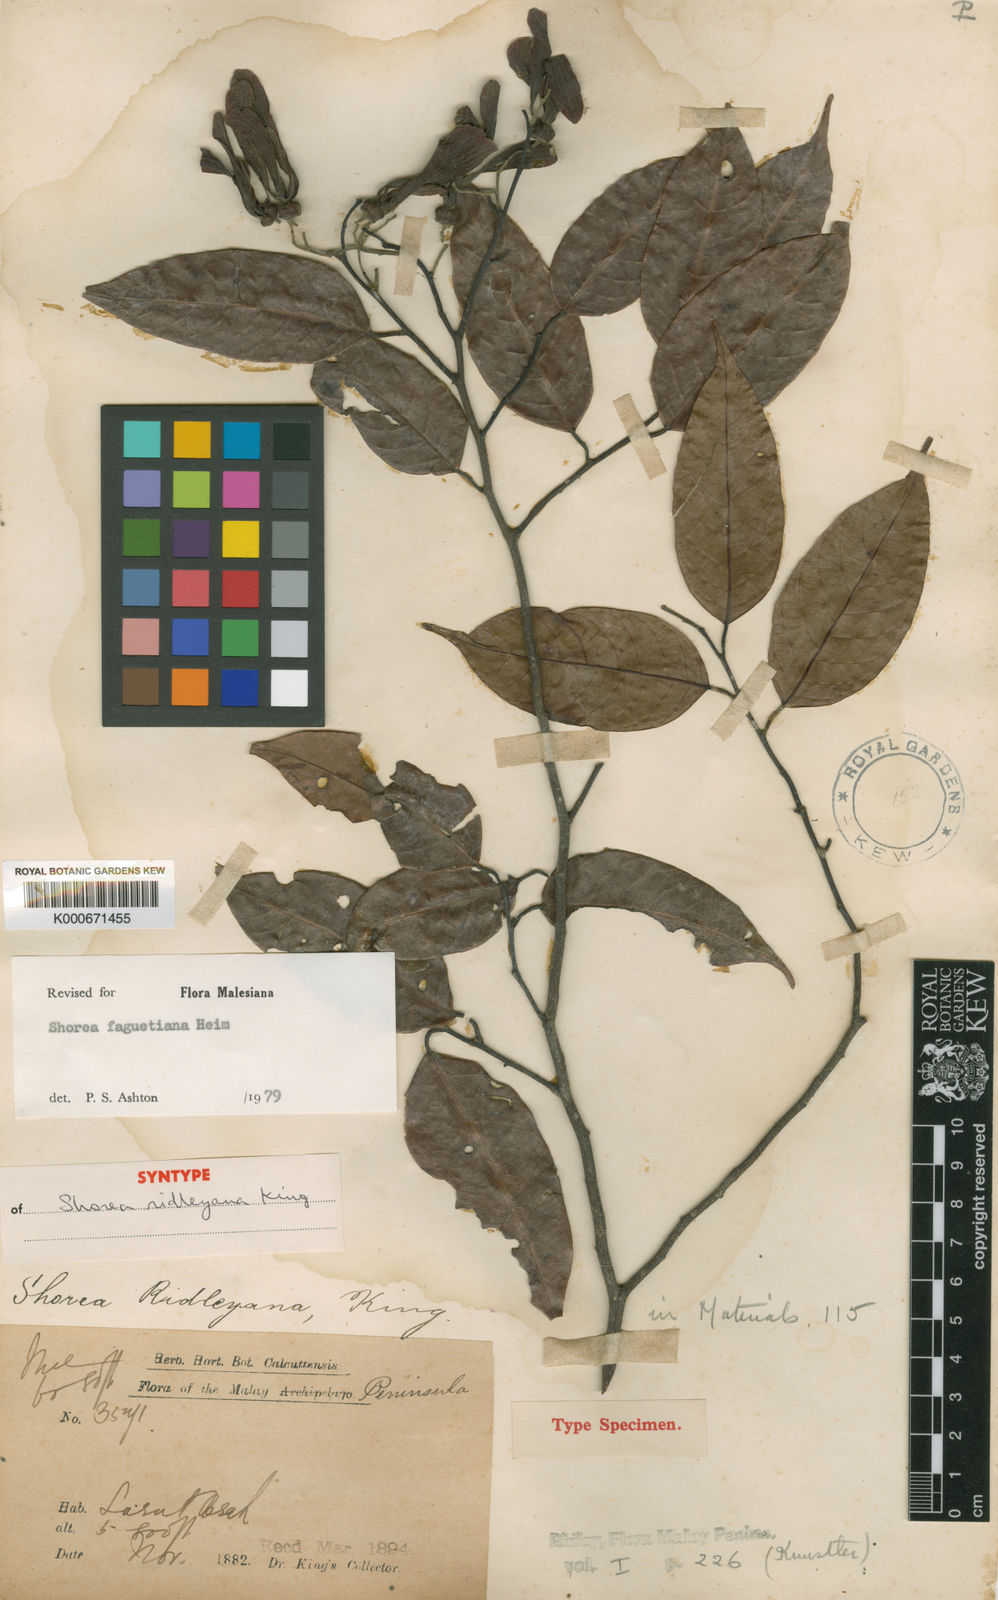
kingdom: Plantae
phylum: Tracheophyta
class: Magnoliopsida
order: Malvales
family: Dipterocarpaceae
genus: Shorea
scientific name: Shorea faguetiana
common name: Yellow meranti
